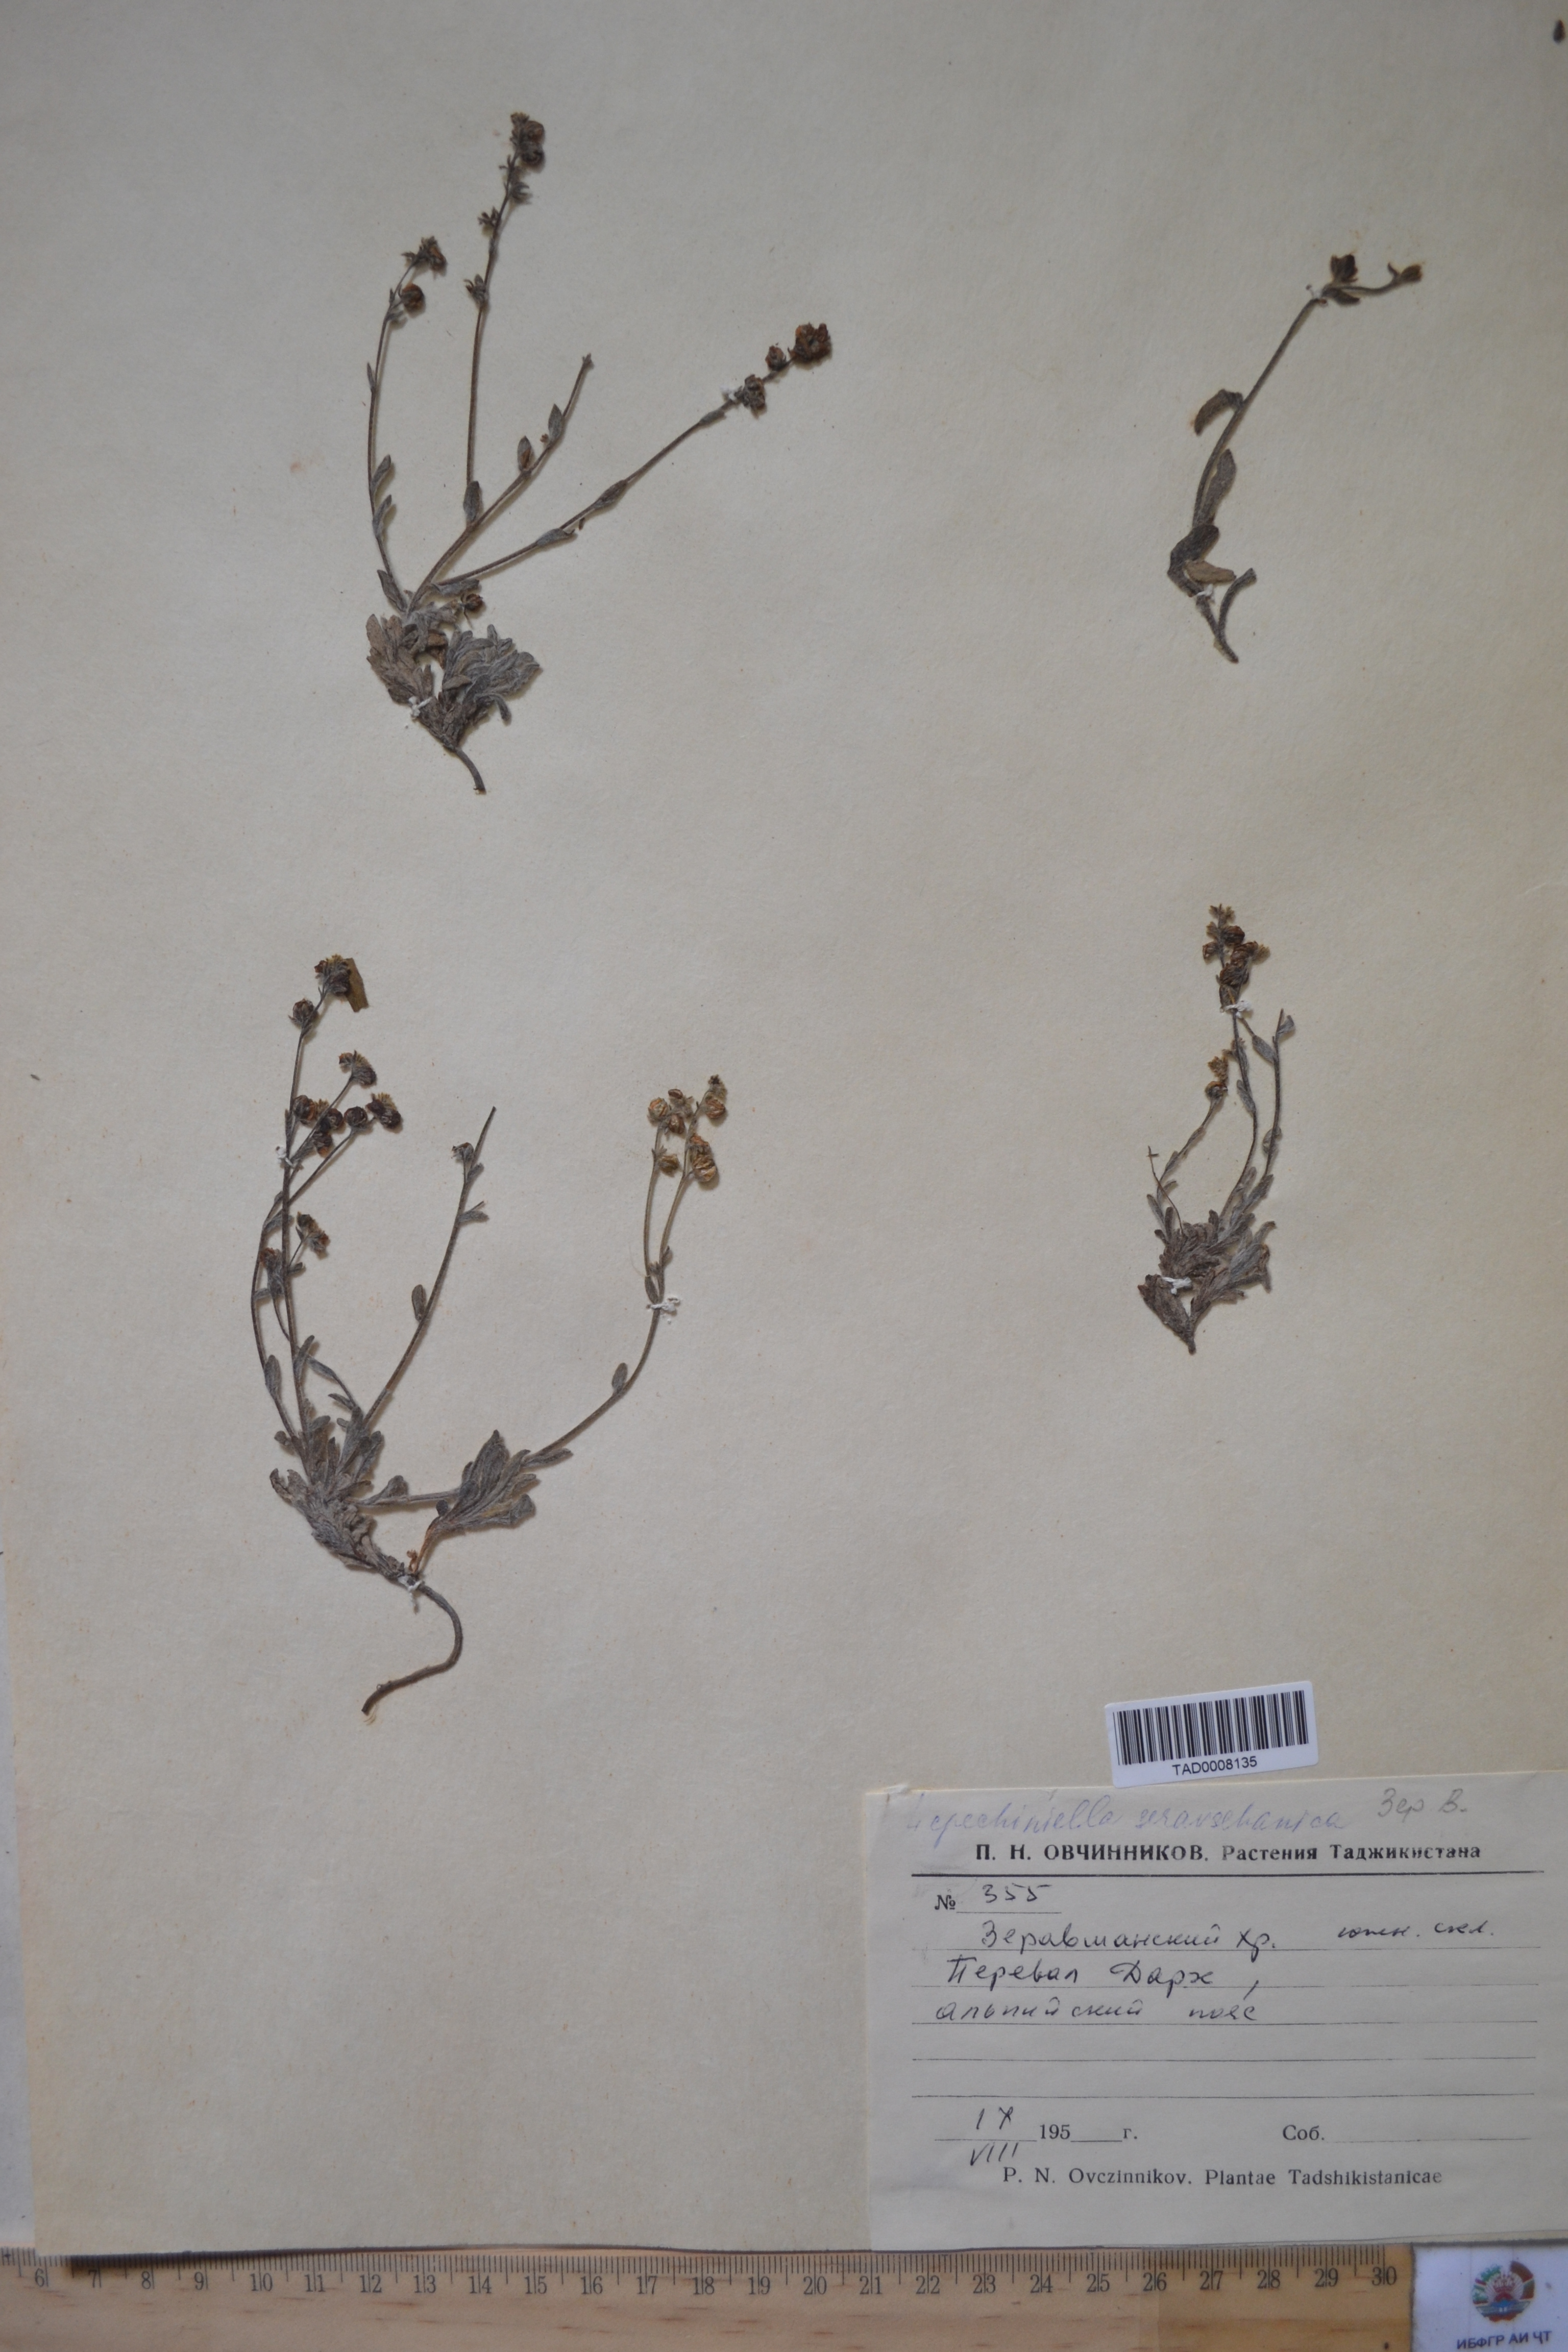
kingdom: Plantae
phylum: Tracheophyta
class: Magnoliopsida
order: Boraginales
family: Boraginaceae
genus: Lepechiniella
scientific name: Lepechiniella seravschanica
